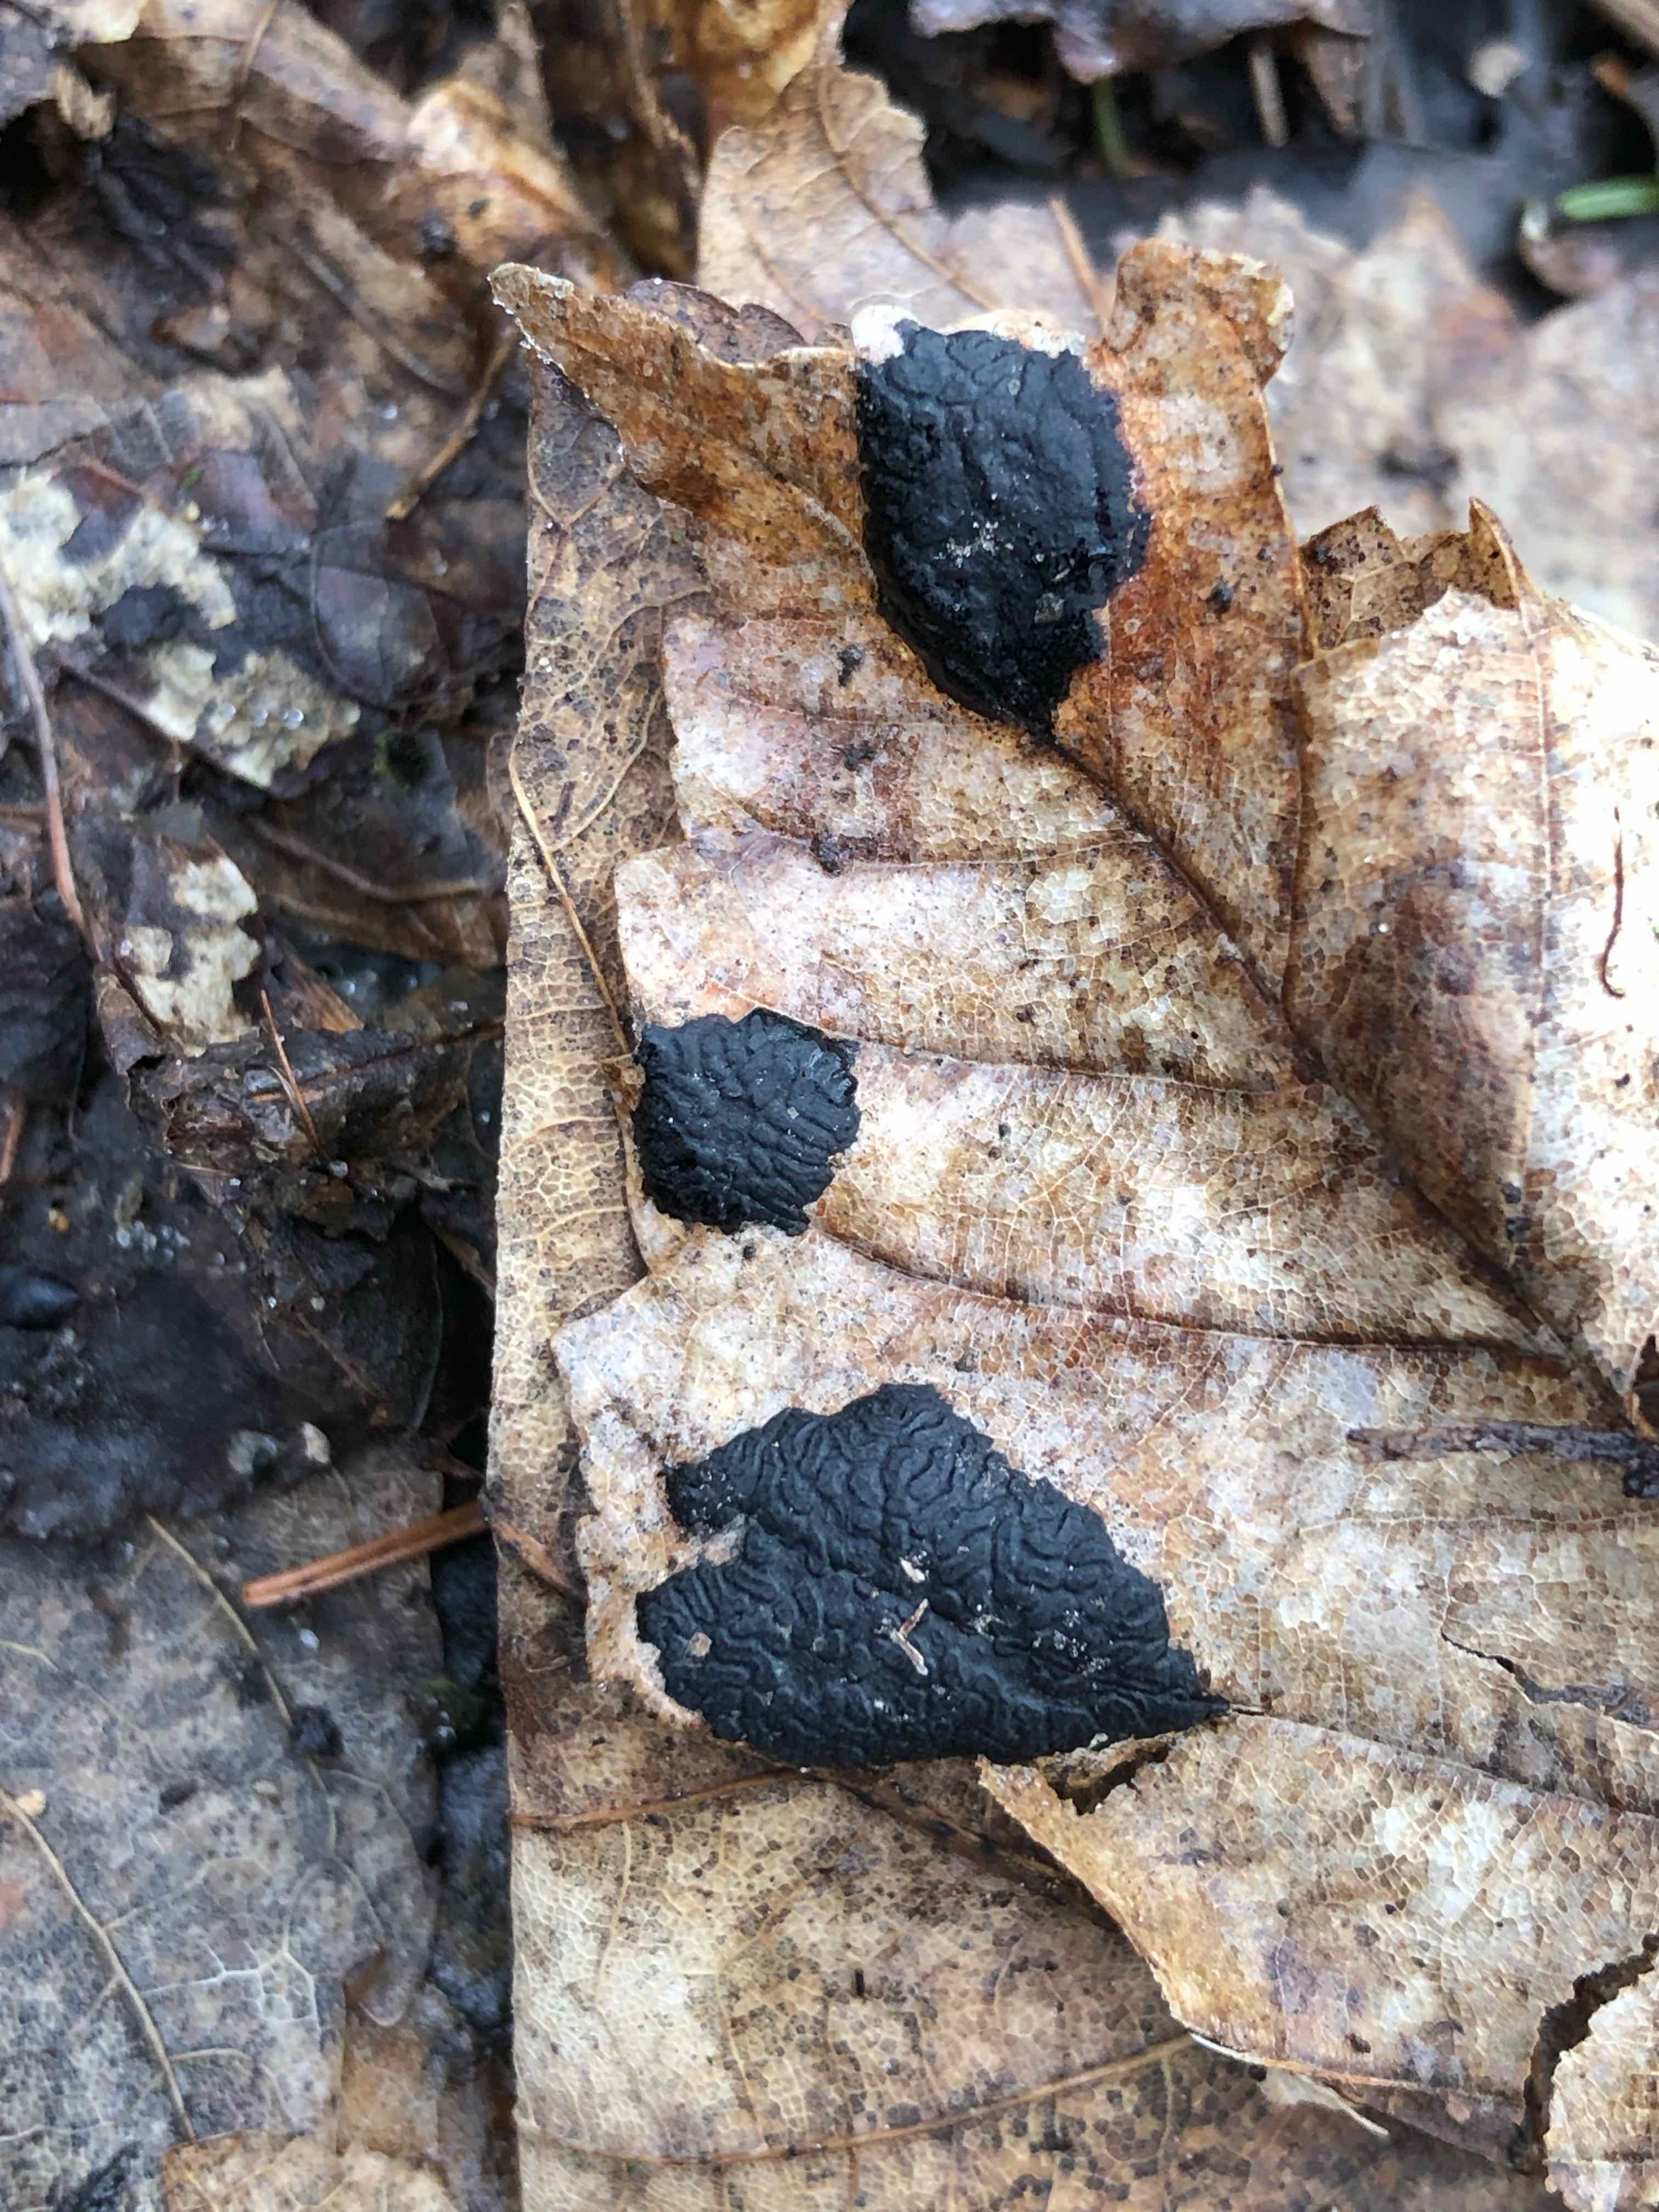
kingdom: Fungi
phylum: Ascomycota
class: Leotiomycetes
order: Rhytismatales
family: Rhytismataceae
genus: Rhytisma
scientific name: Rhytisma acerinum
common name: ahorn-rynkeplet
